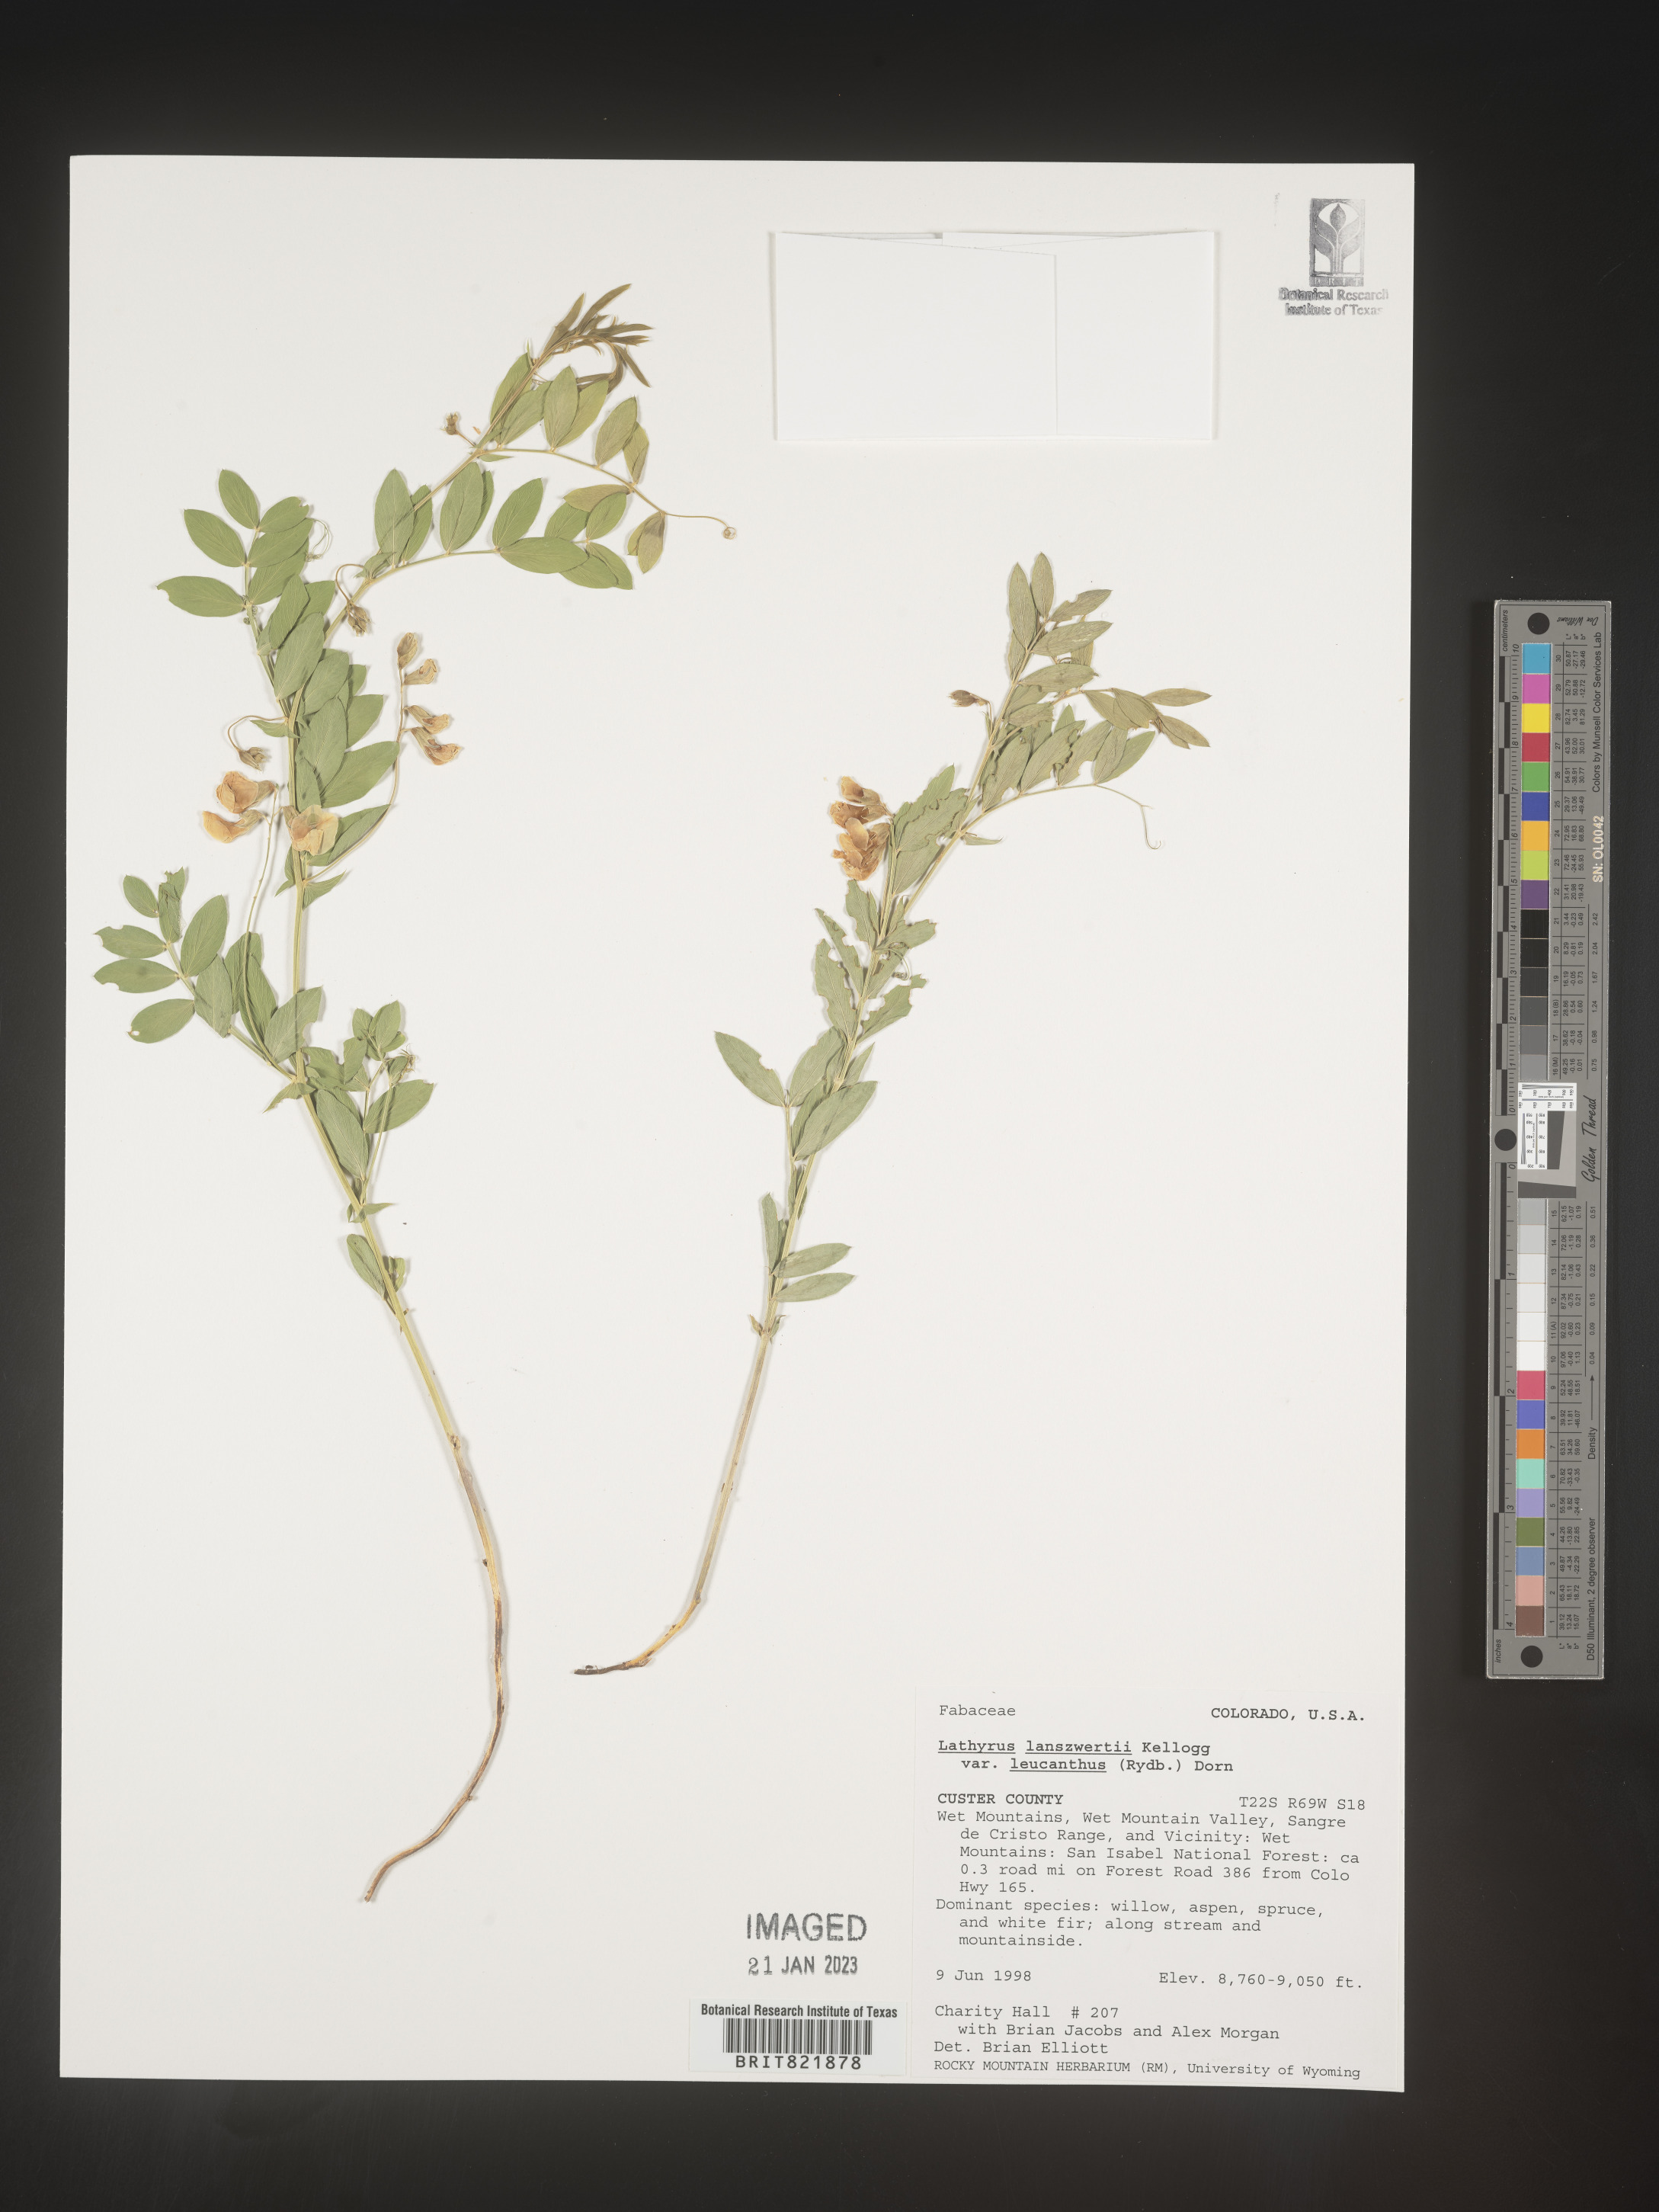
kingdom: Plantae
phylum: Tracheophyta
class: Magnoliopsida
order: Fabales
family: Fabaceae
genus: Lathyrus
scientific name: Lathyrus
